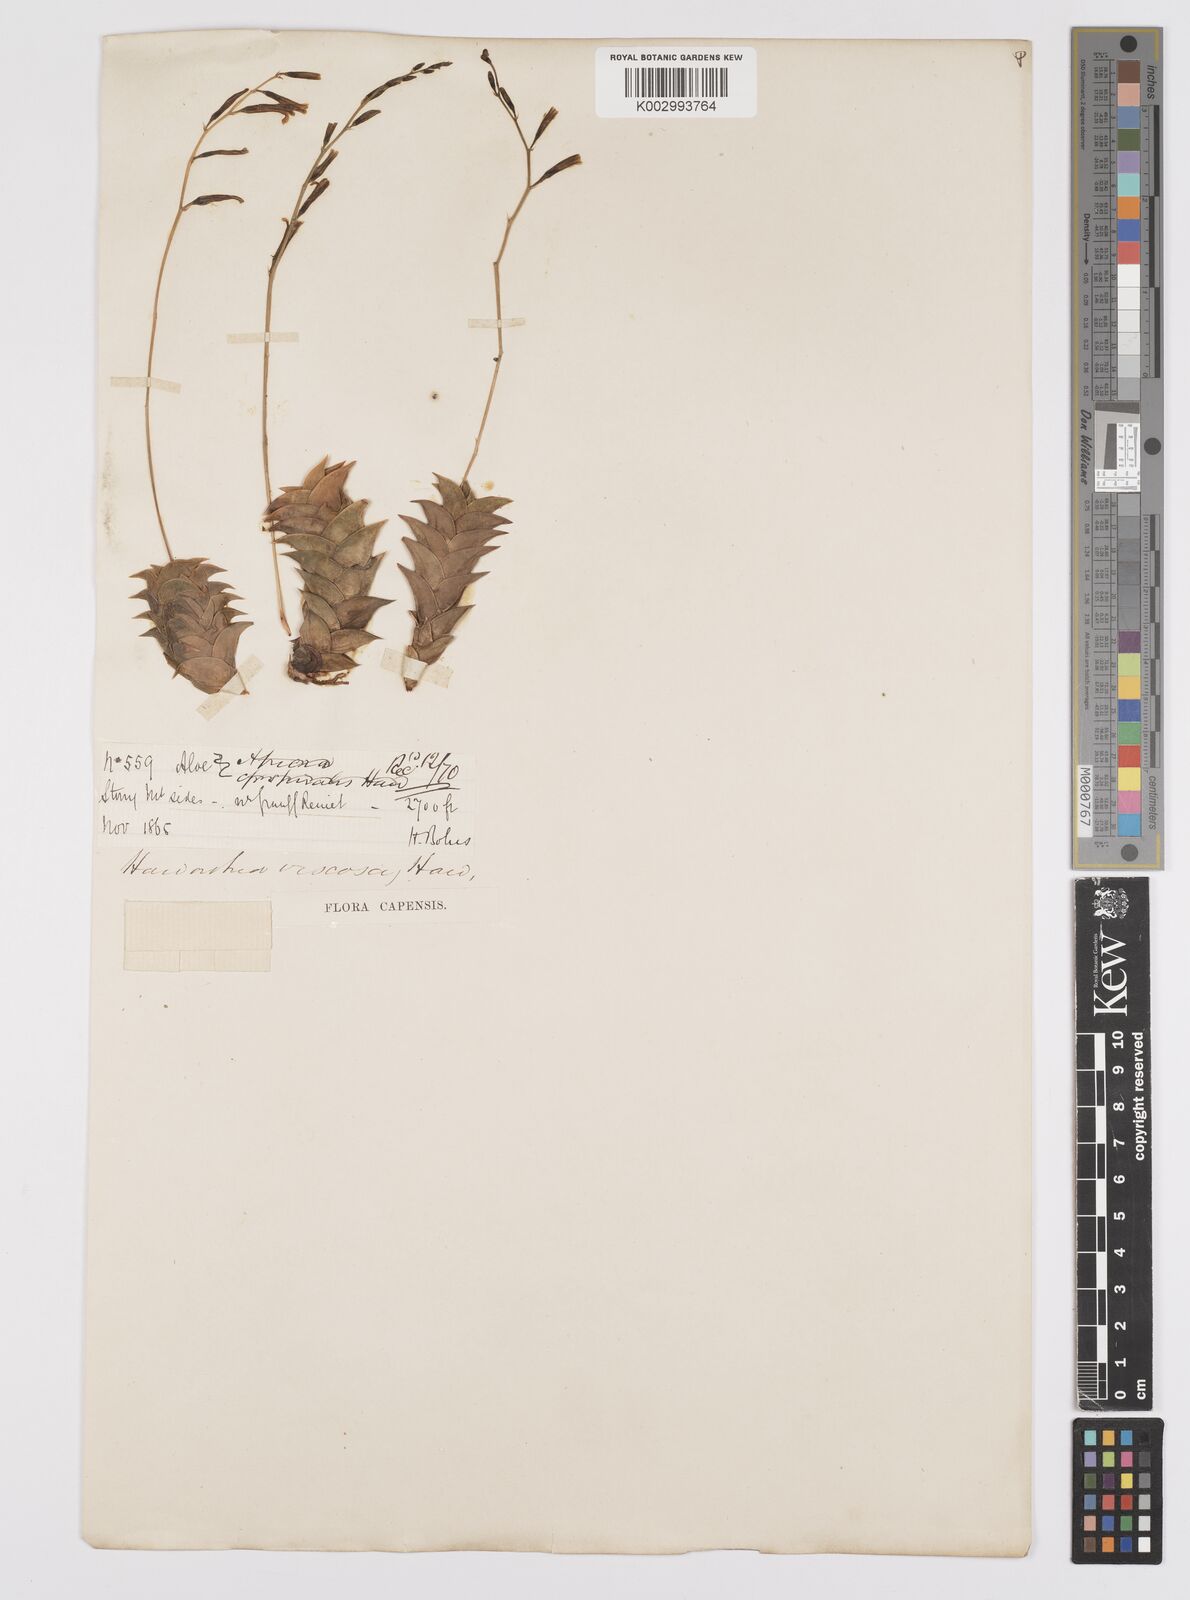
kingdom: Plantae
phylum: Tracheophyta
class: Liliopsida
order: Asparagales
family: Asphodelaceae
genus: Haworthiopsis
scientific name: Haworthiopsis viscosa
